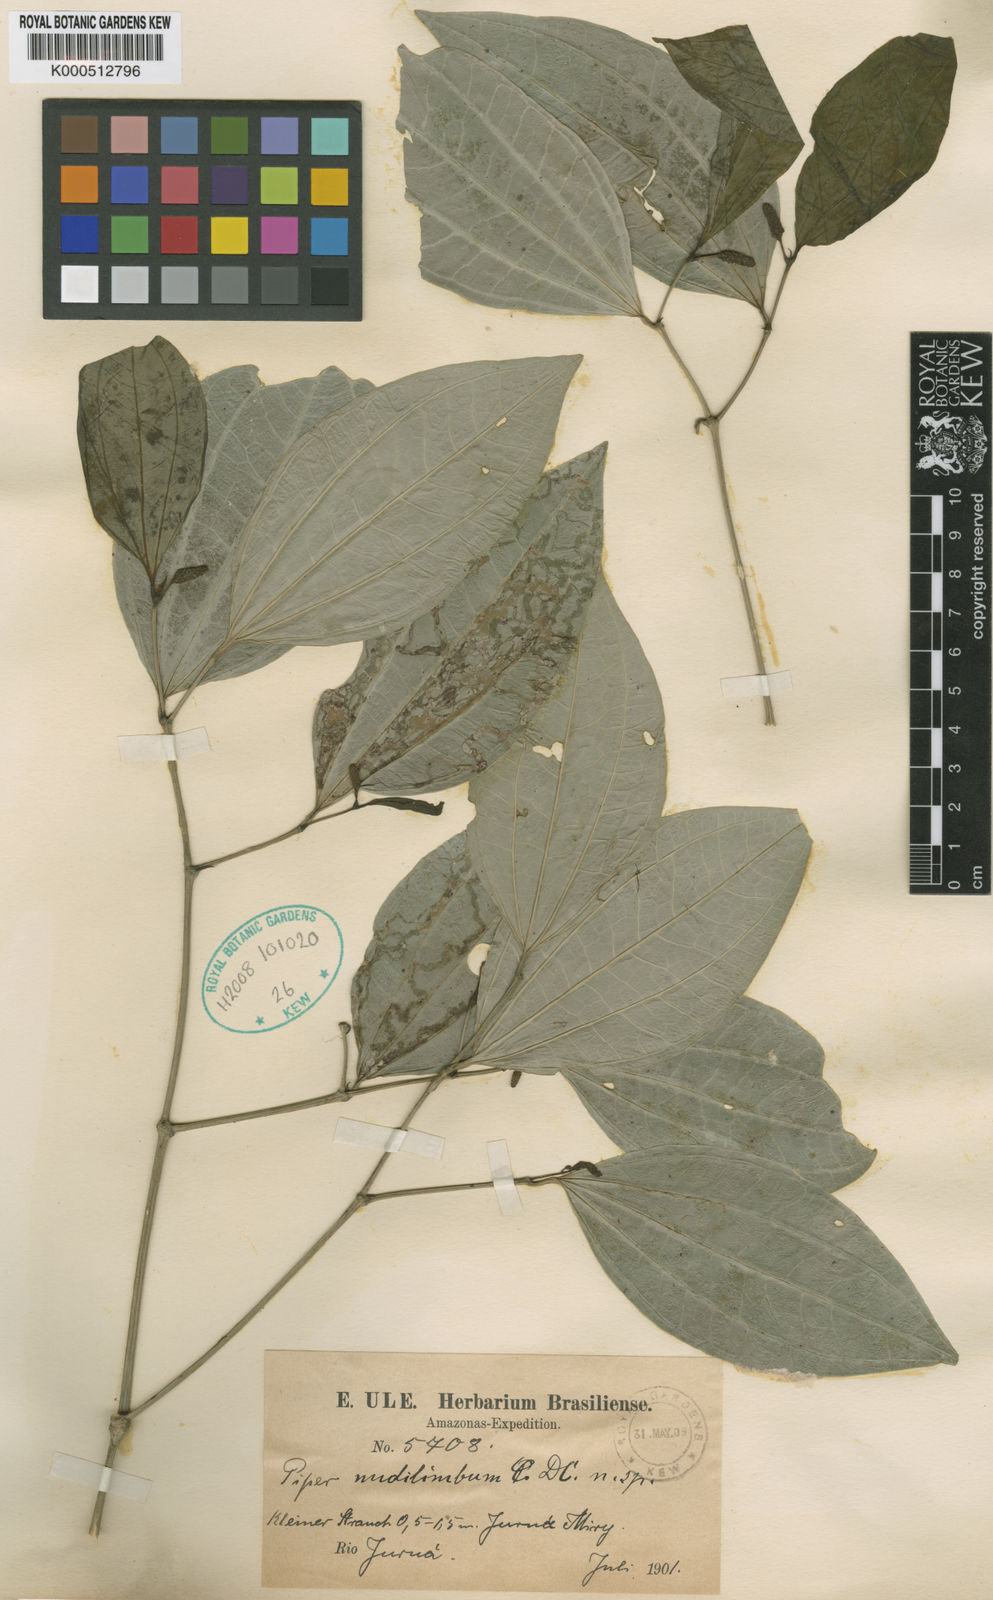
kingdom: Plantae
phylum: Tracheophyta
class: Magnoliopsida
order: Piperales
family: Piperaceae
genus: Piper
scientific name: Piper nudilimbum
